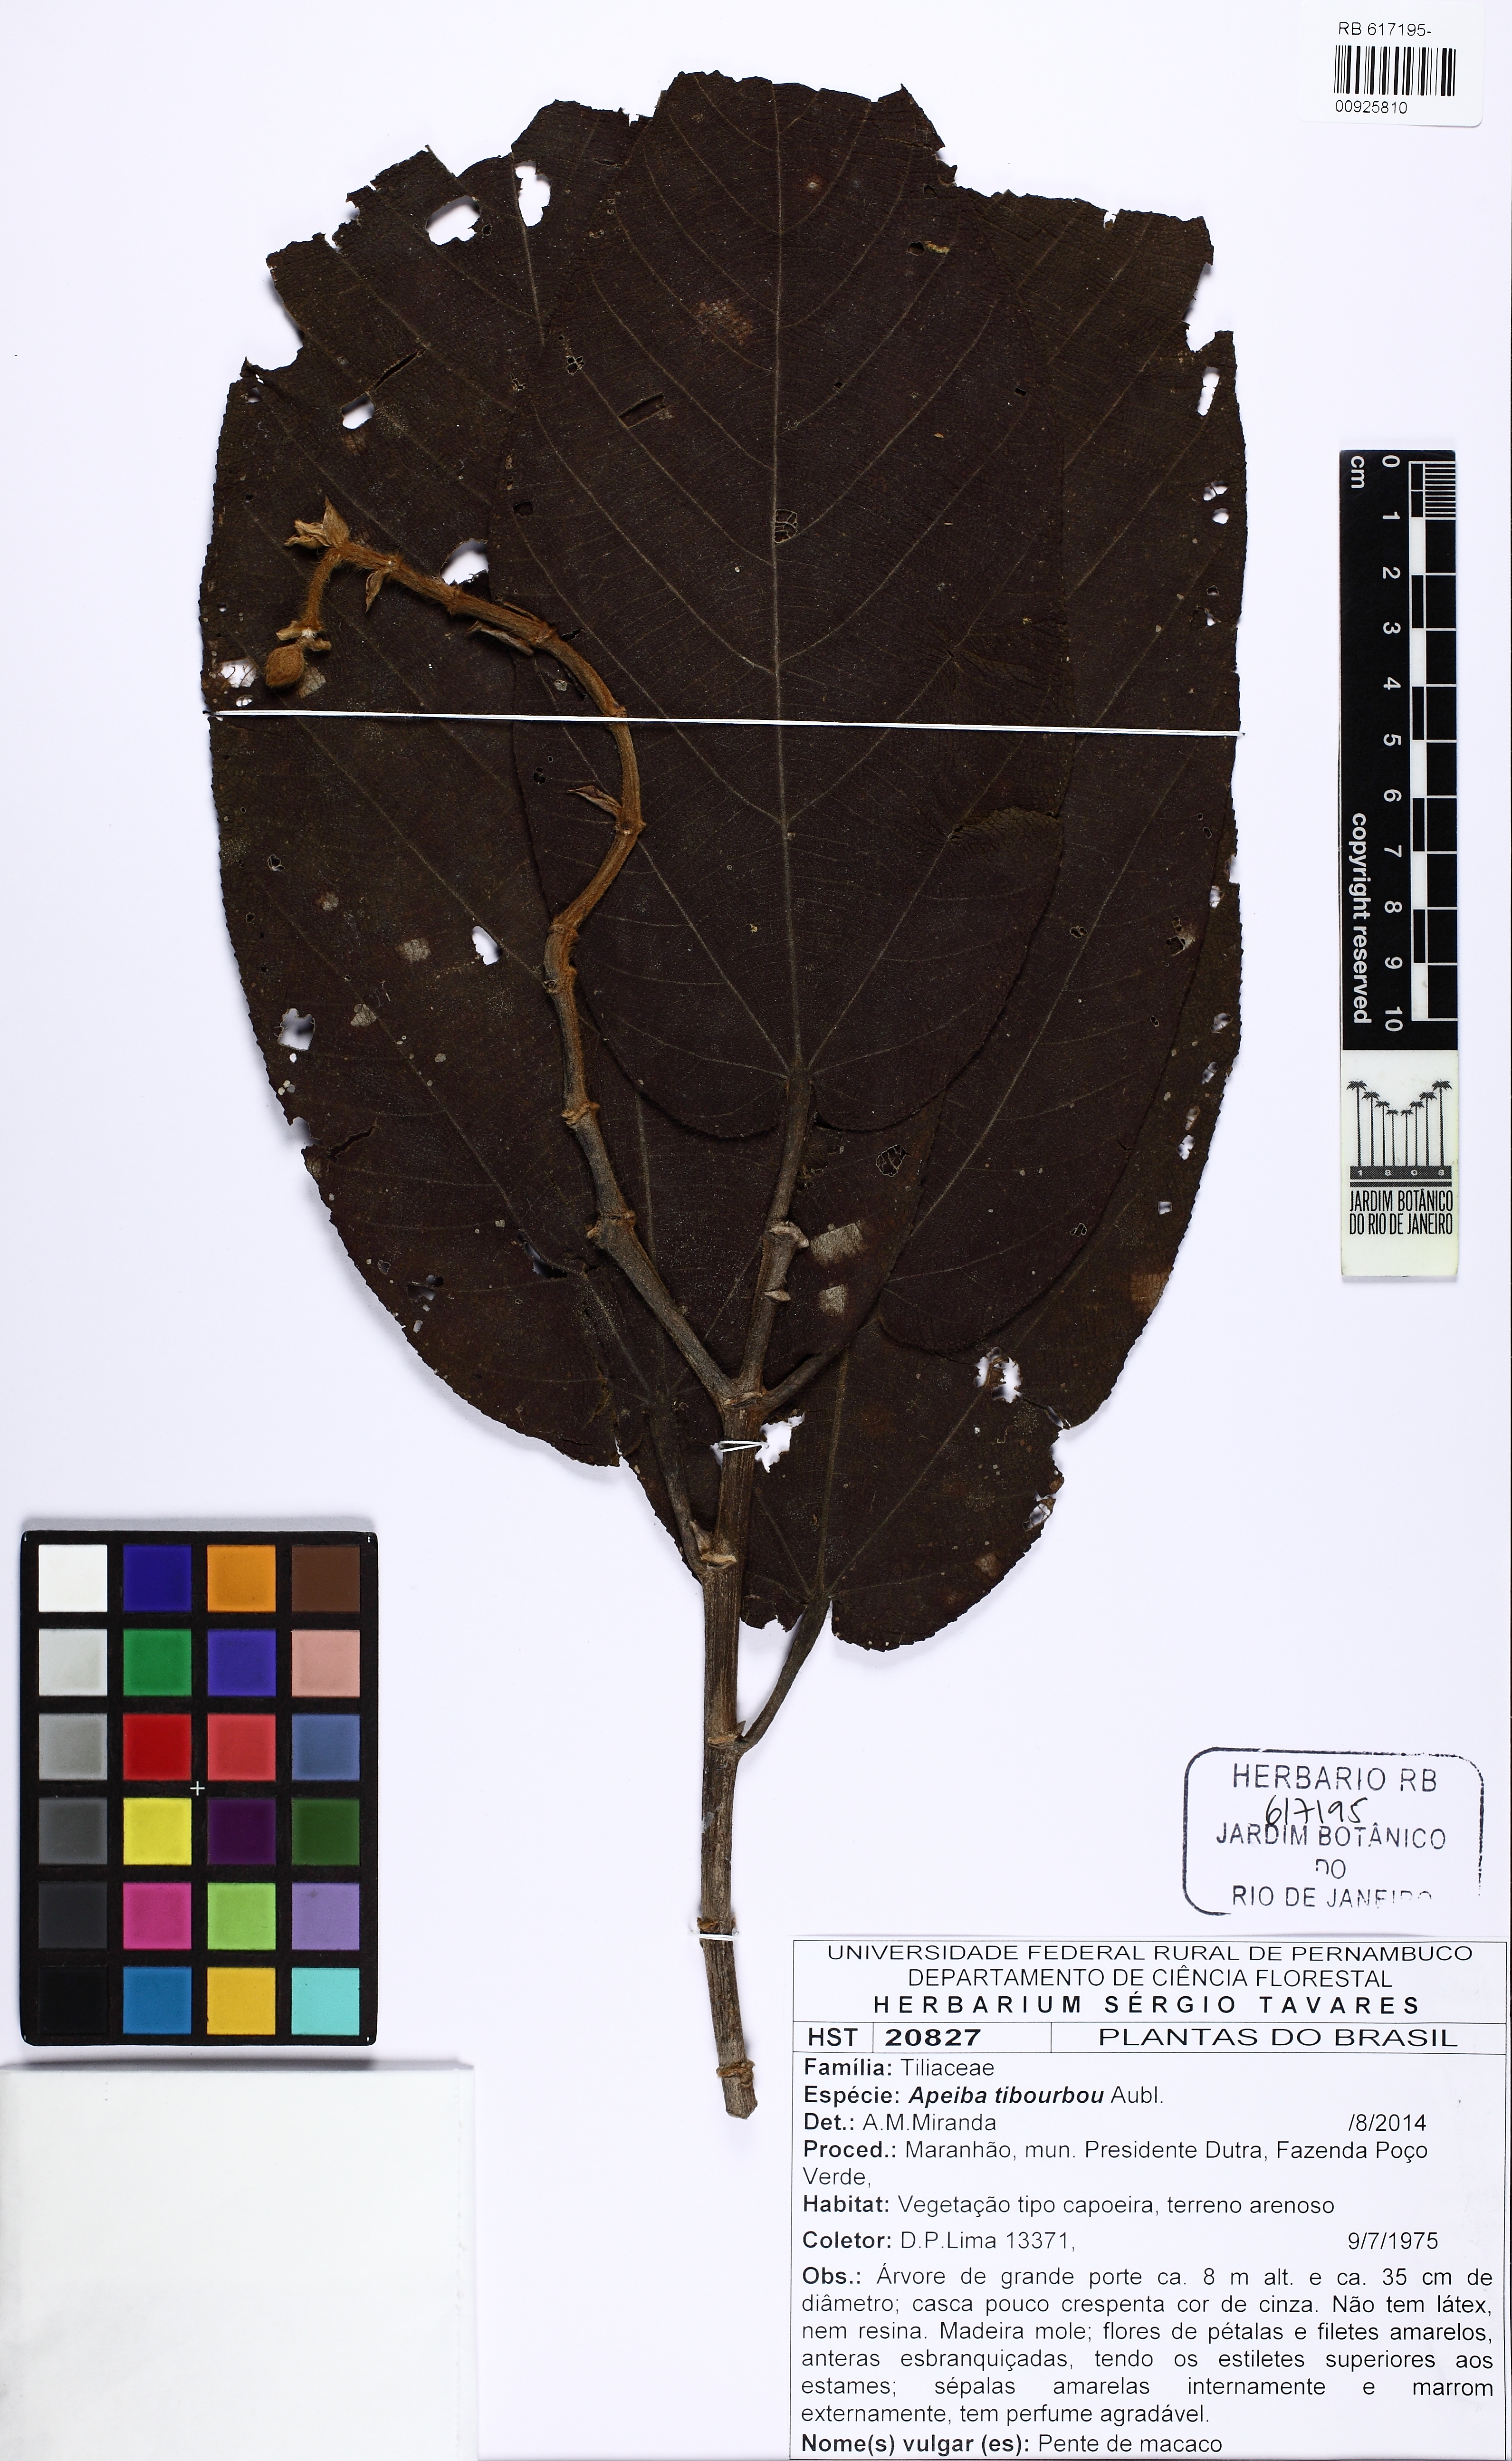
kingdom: Plantae
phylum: Tracheophyta
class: Magnoliopsida
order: Malvales
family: Malvaceae
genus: Apeiba
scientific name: Apeiba tibourbou
